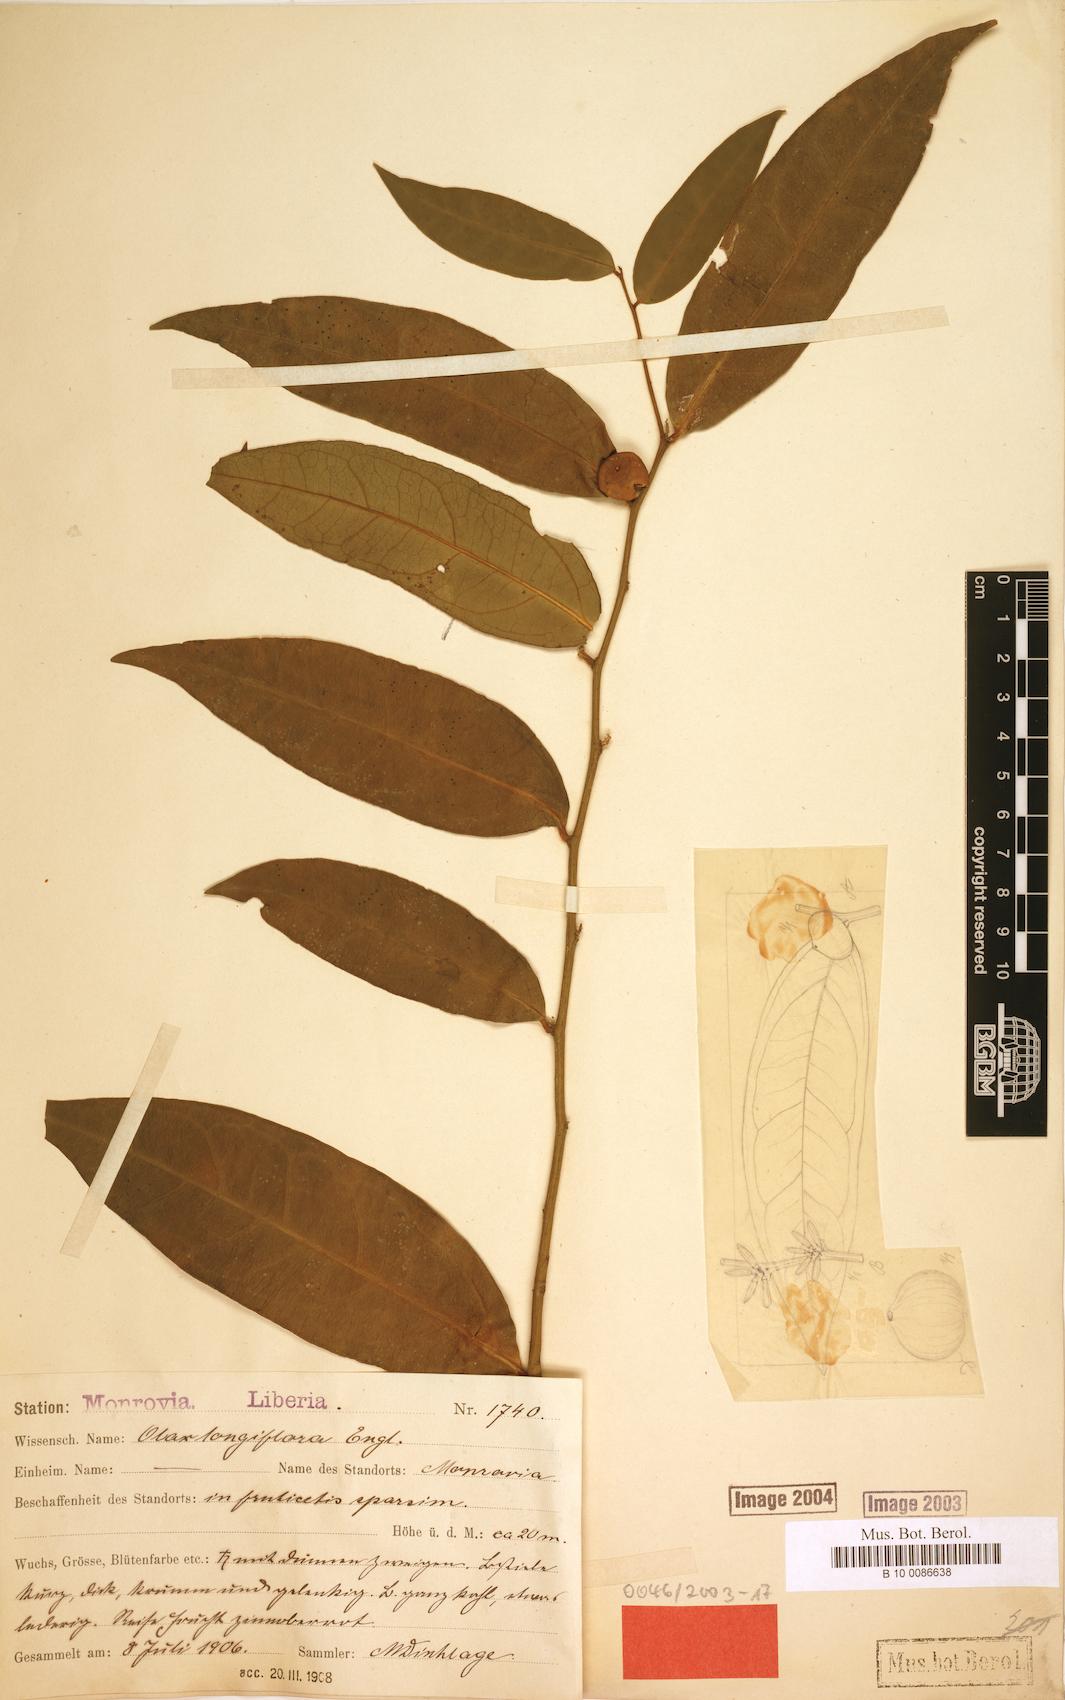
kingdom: Plantae
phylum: Tracheophyta
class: Magnoliopsida
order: Santalales
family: Olacaceae
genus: Olax
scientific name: Olax mannii
